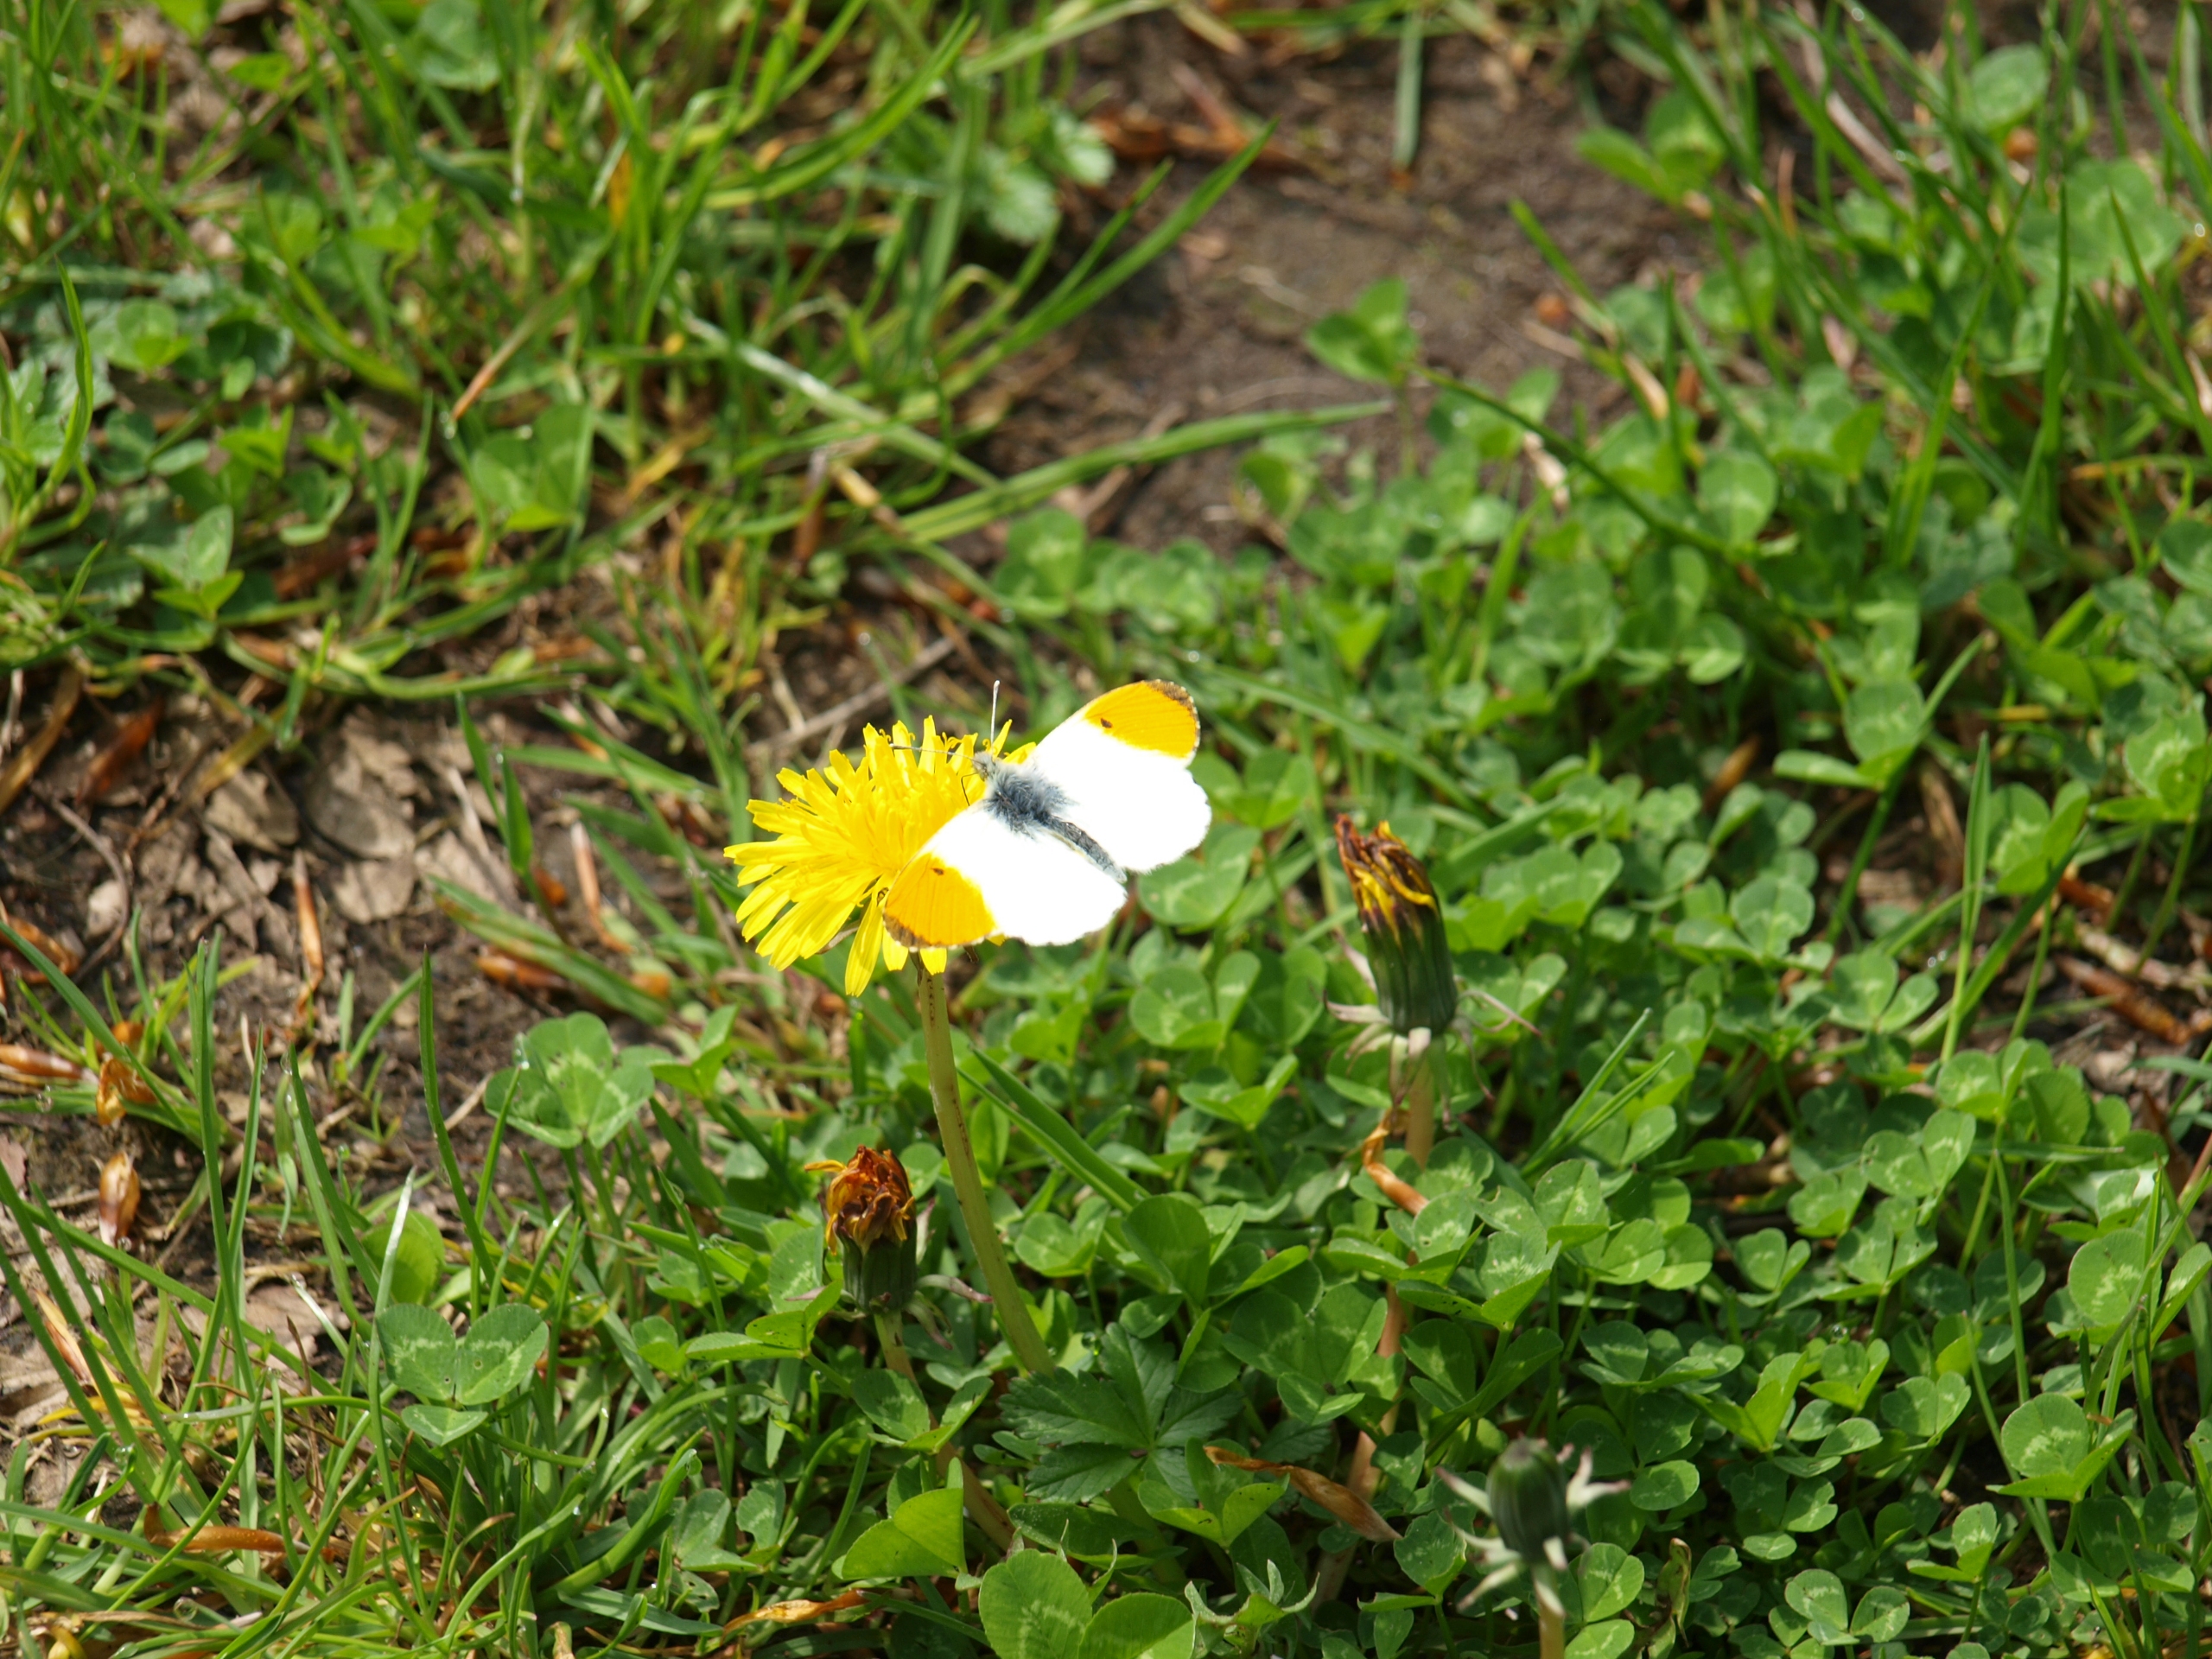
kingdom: Animalia
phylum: Arthropoda
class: Insecta
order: Lepidoptera
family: Pieridae
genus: Anthocharis
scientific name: Anthocharis cardamines
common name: Aurora
